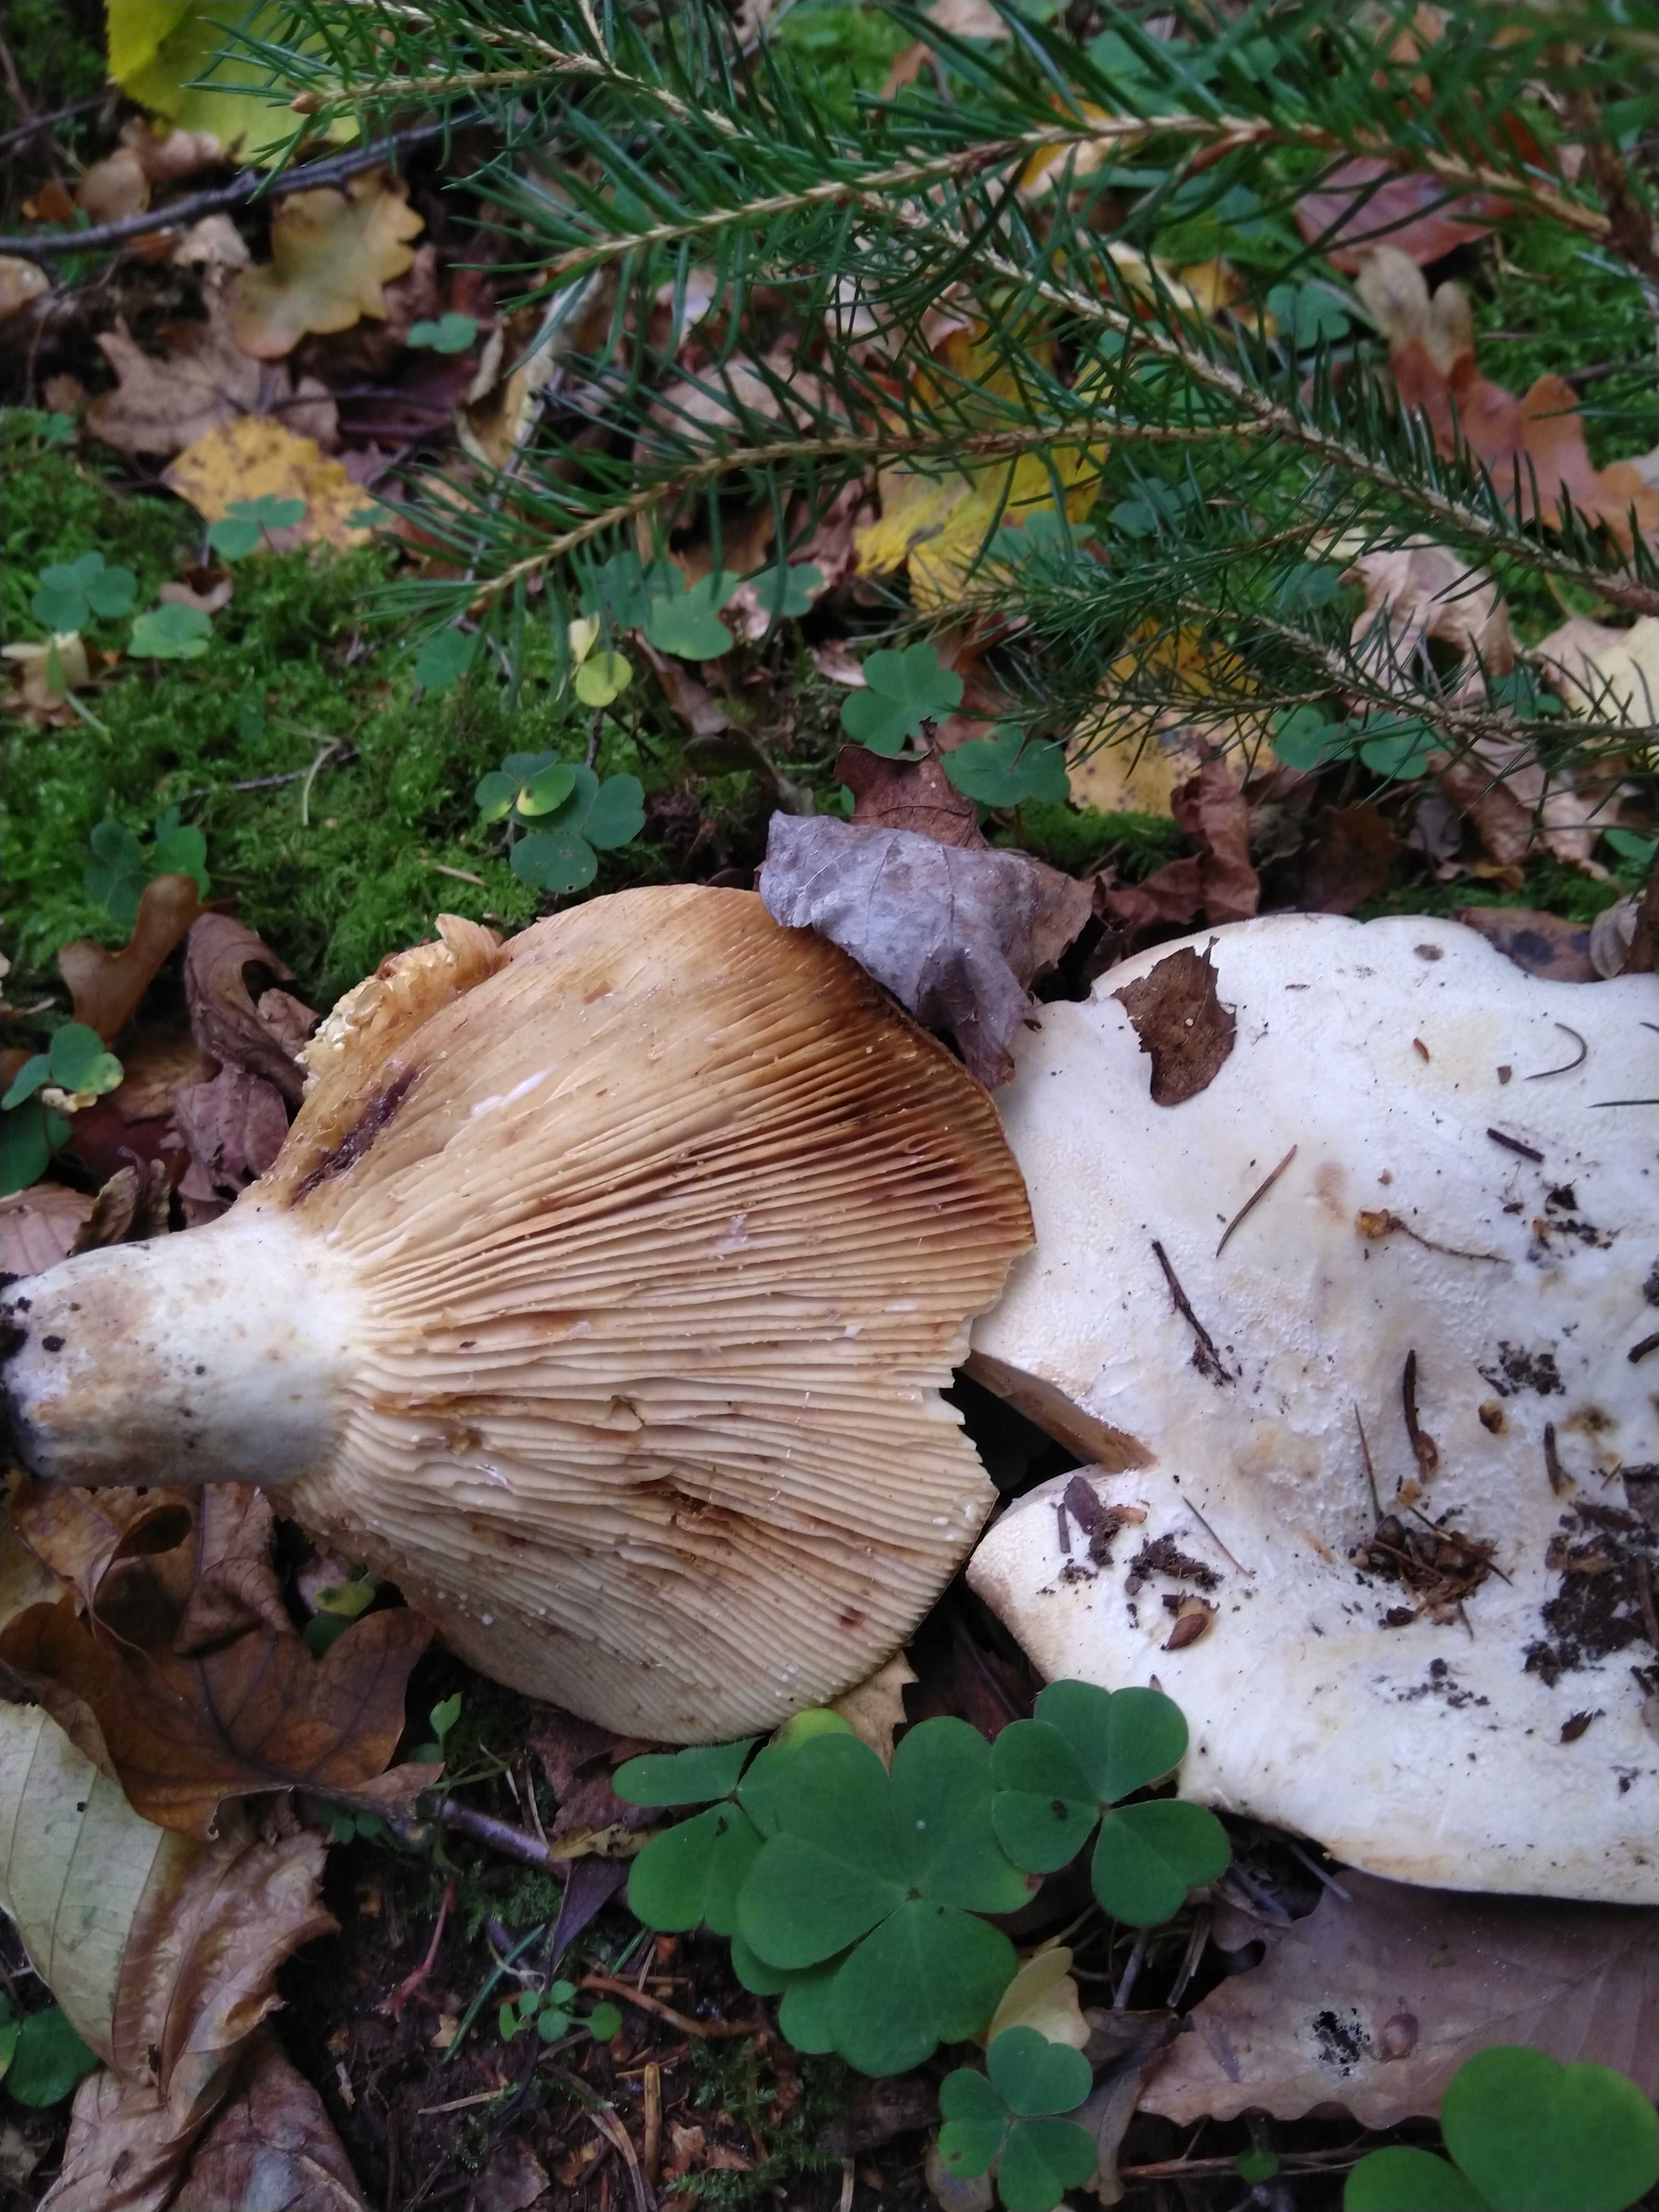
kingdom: Fungi
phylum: Basidiomycota
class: Agaricomycetes
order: Russulales
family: Russulaceae
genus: Lactifluus
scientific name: Lactifluus vellereus
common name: hvidfiltet mælkehat
